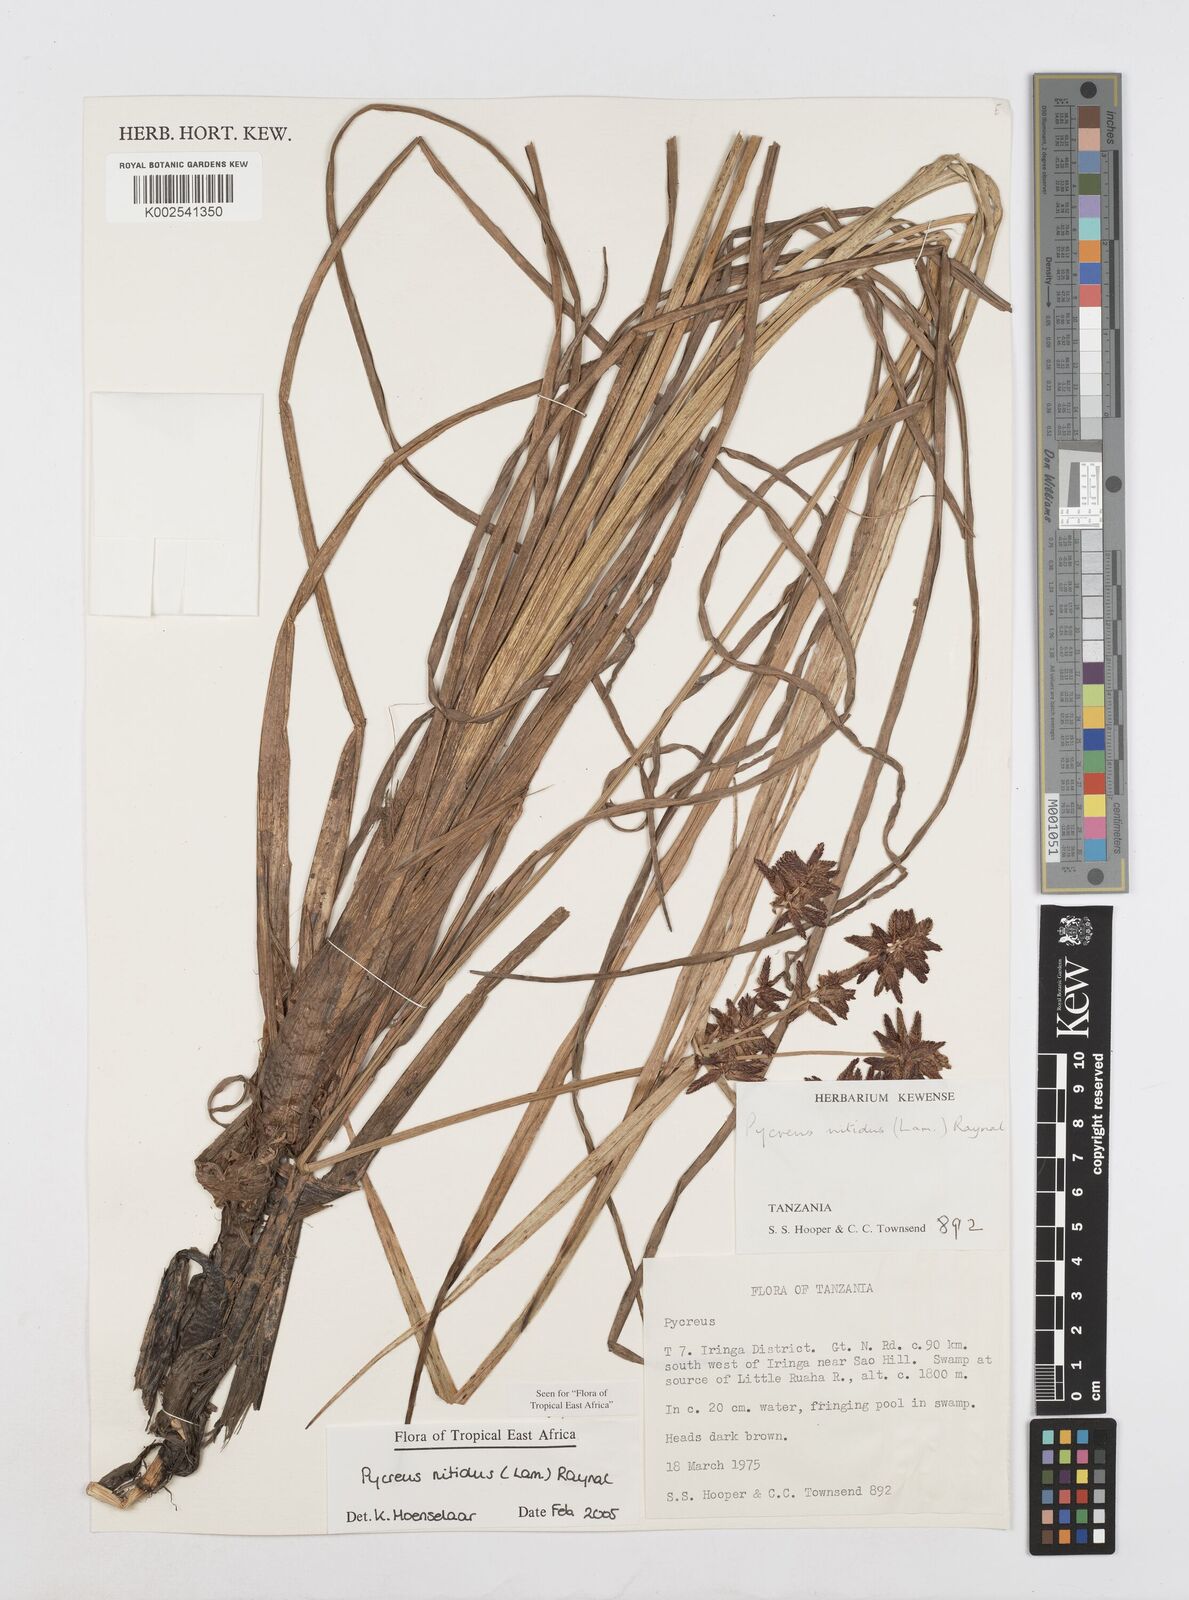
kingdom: Plantae
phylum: Tracheophyta
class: Liliopsida
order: Poales
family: Cyperaceae
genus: Cyperus
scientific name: Cyperus nitidus
